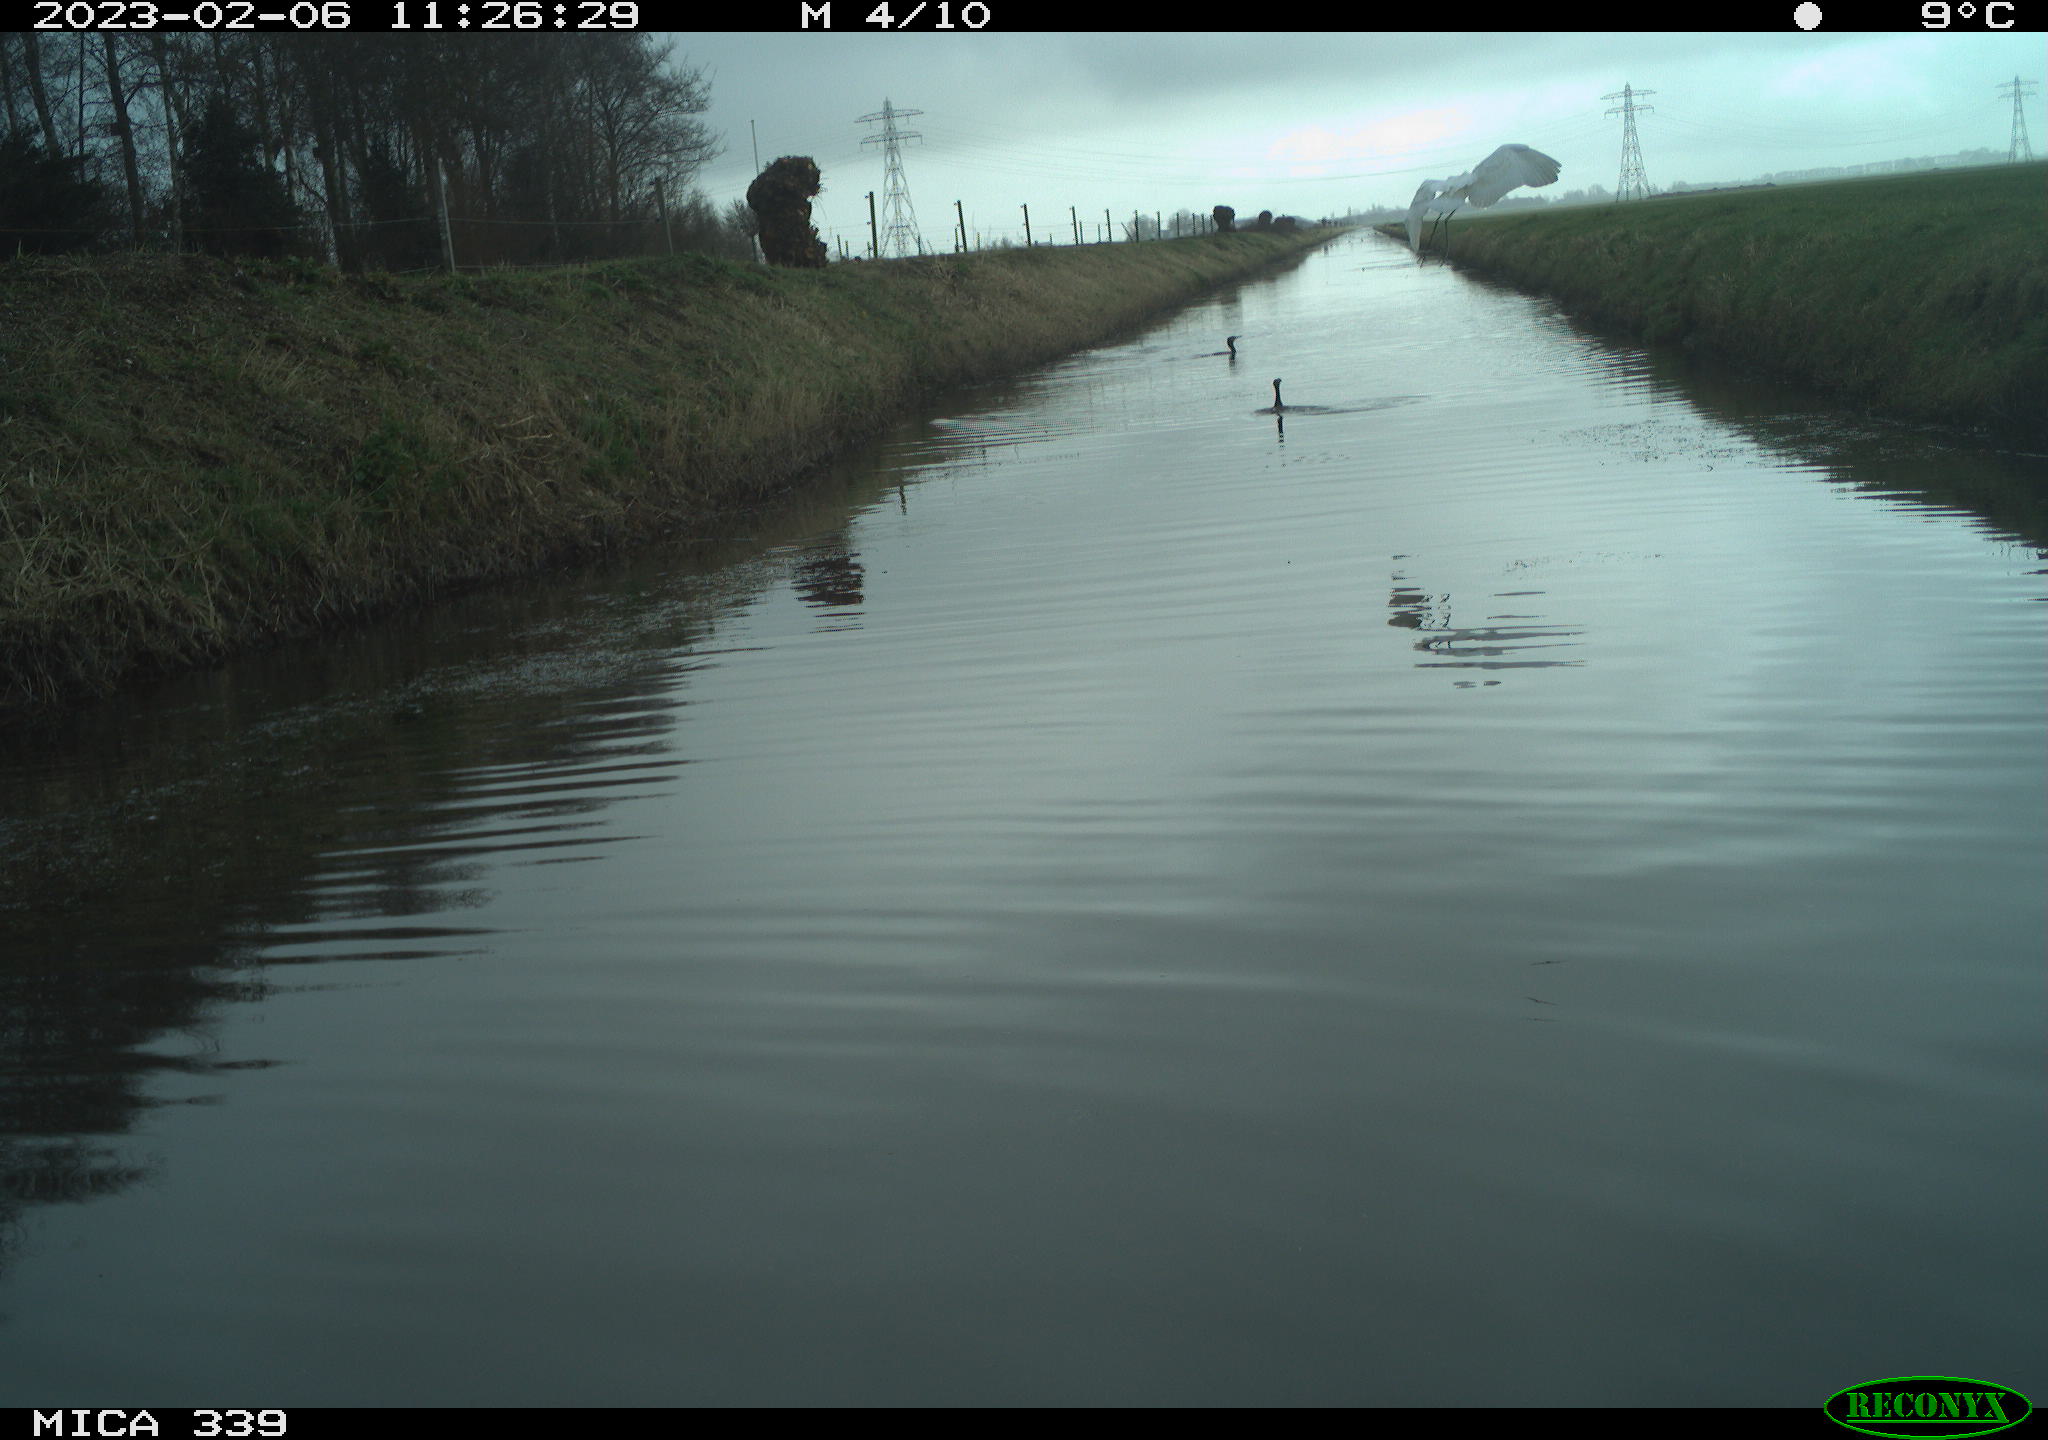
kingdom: Animalia
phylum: Chordata
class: Aves
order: Suliformes
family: Phalacrocoracidae
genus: Phalacrocorax
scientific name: Phalacrocorax carbo
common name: Great cormorant
